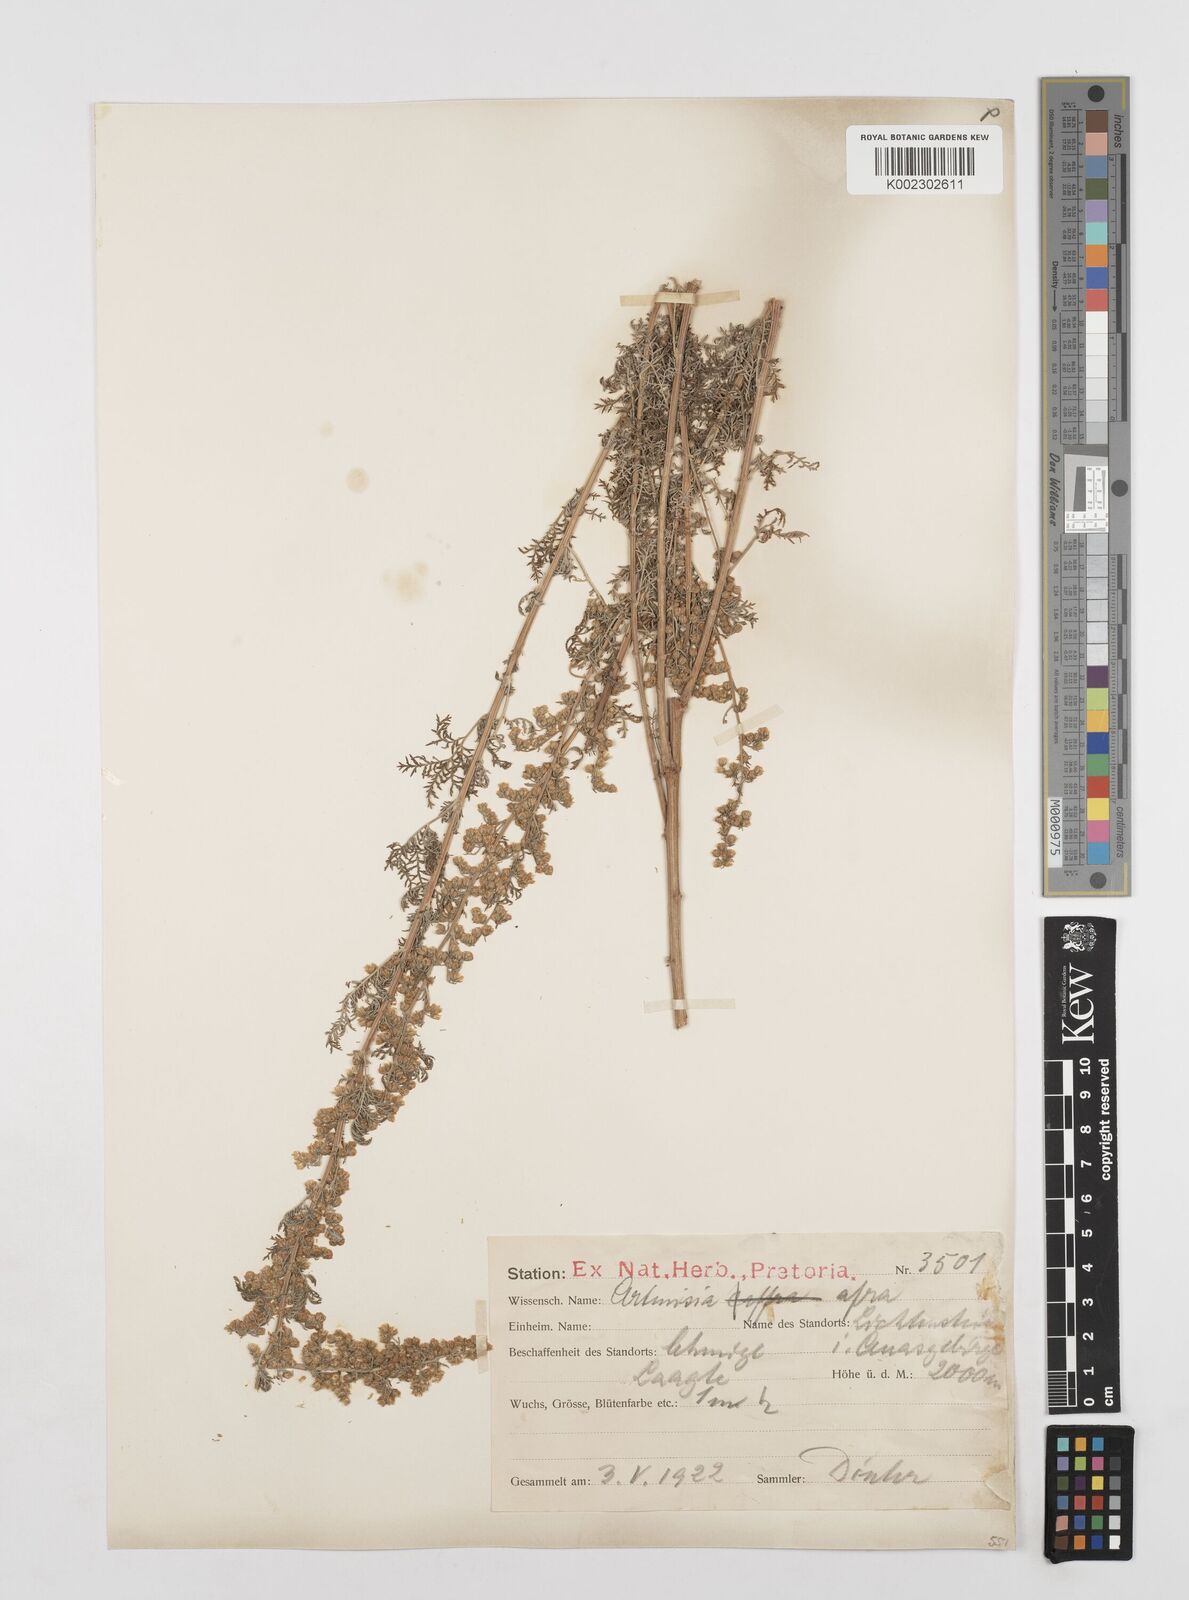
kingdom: Plantae
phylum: Tracheophyta
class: Magnoliopsida
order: Asterales
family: Asteraceae
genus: Artemisia
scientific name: Artemisia afra
